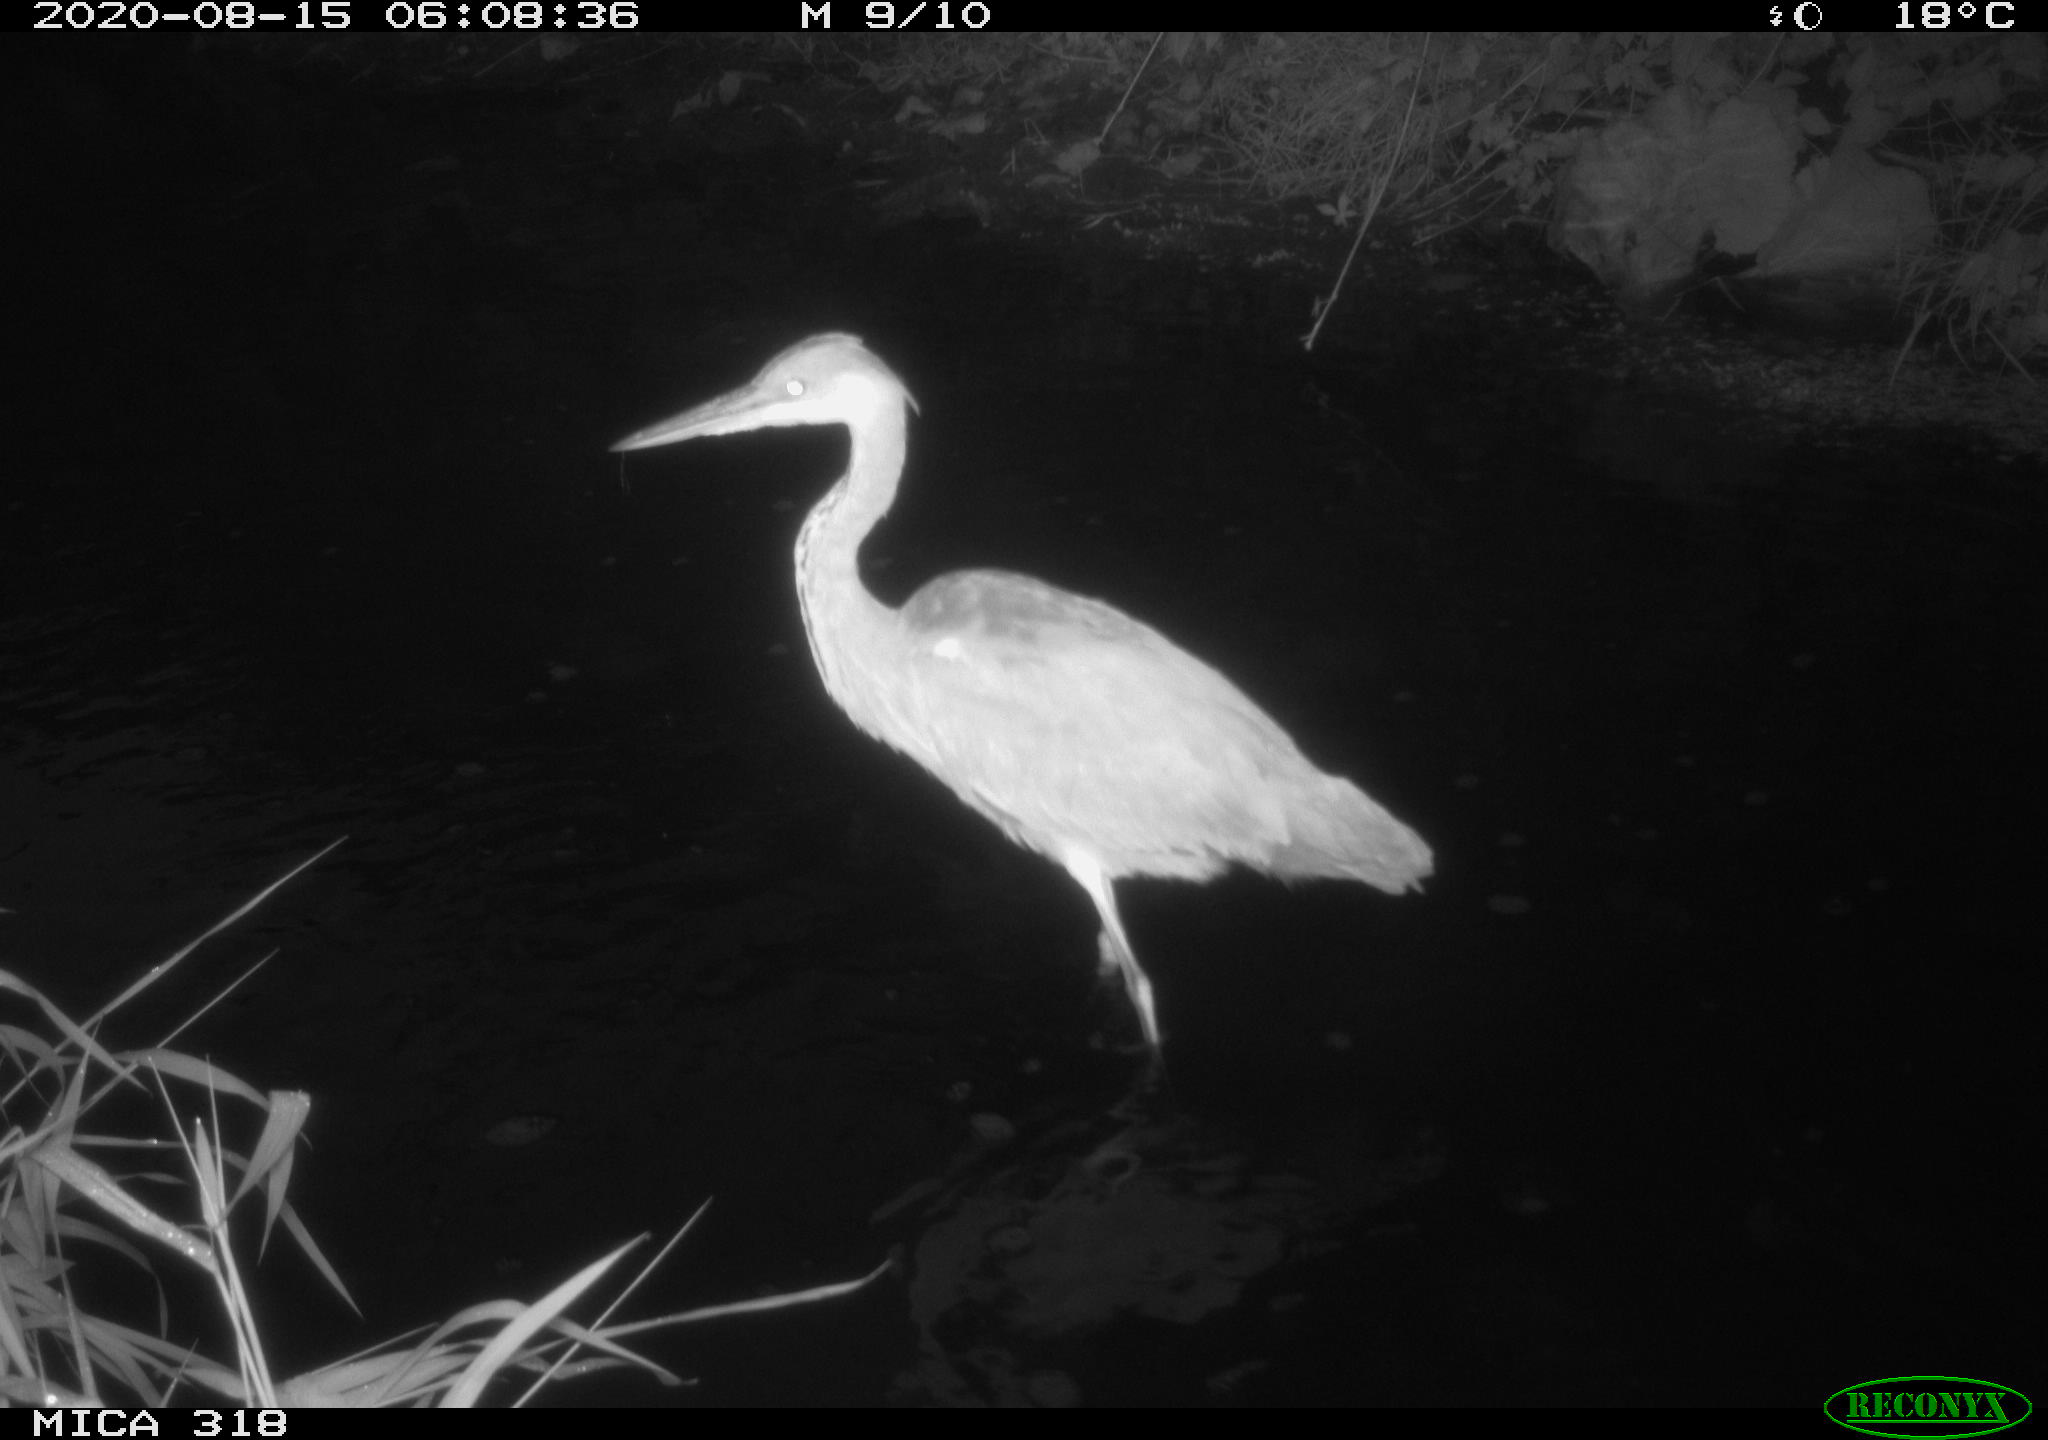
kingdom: Animalia
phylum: Chordata
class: Aves
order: Pelecaniformes
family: Ardeidae
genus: Ardea
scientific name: Ardea cinerea
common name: Grey heron
